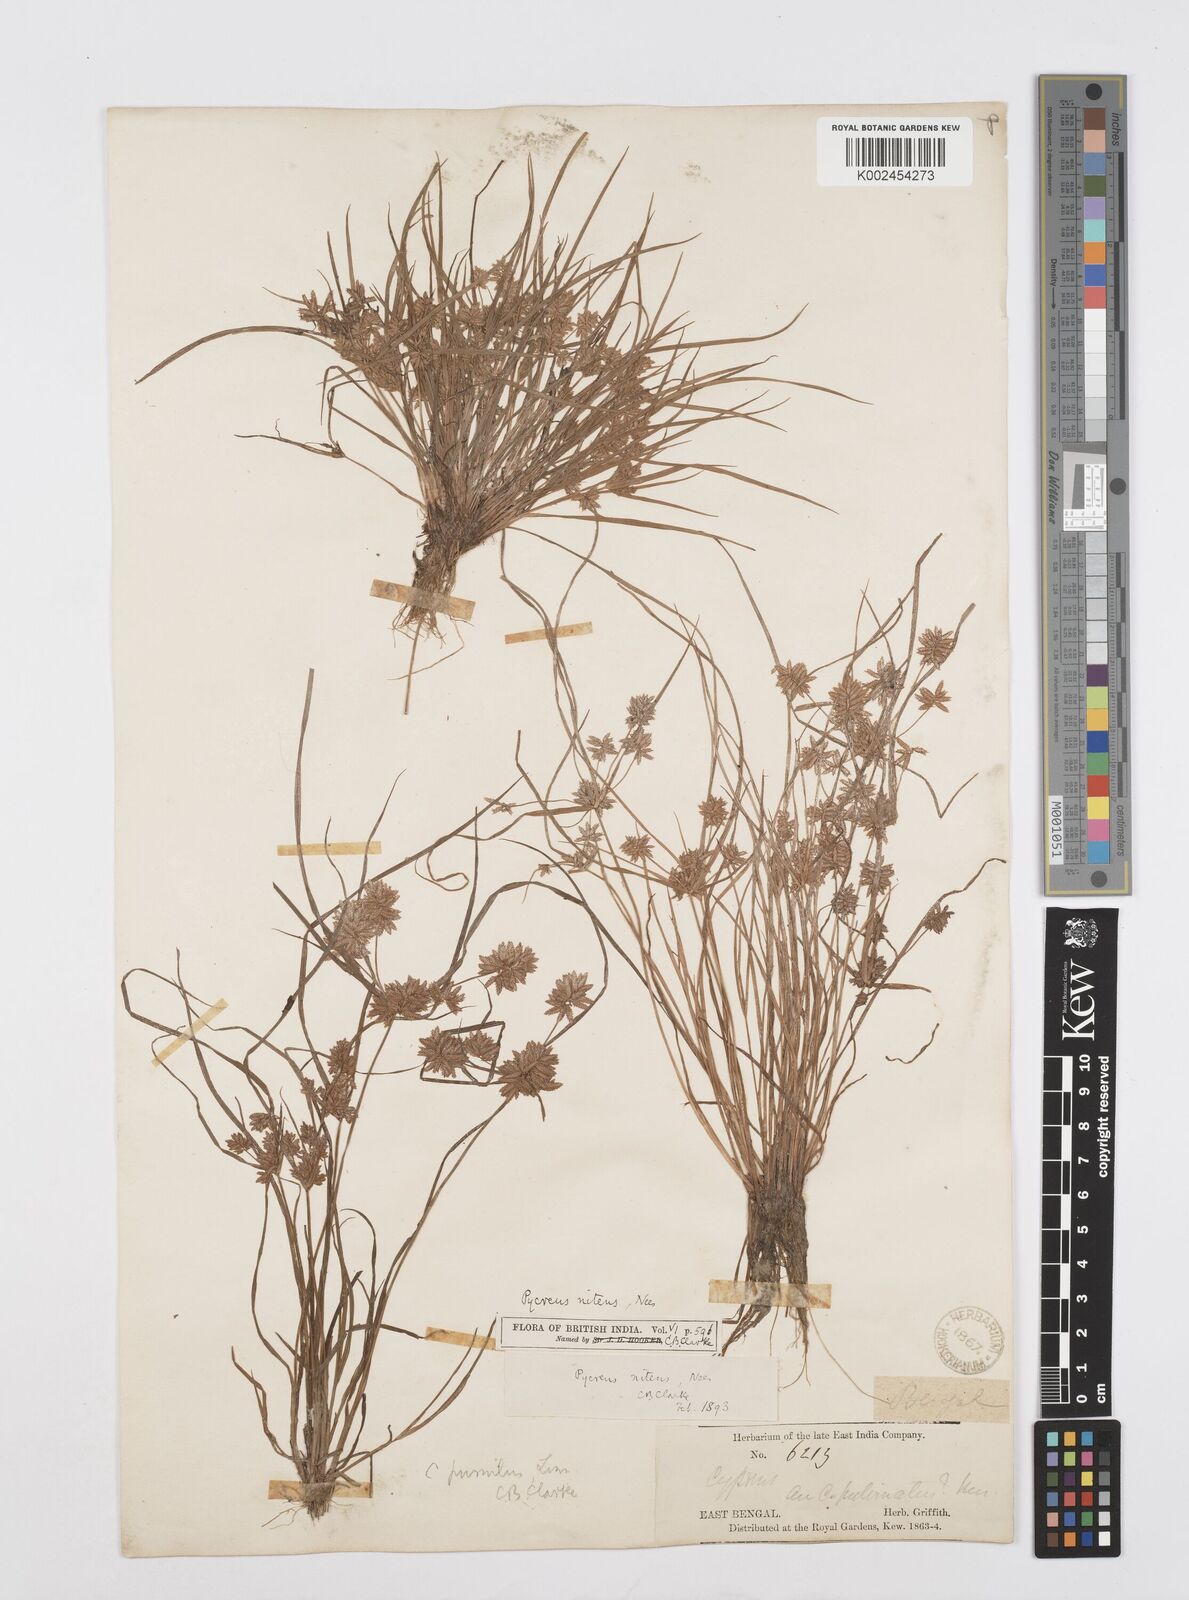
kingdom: Plantae
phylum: Tracheophyta
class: Liliopsida
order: Poales
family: Cyperaceae
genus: Cyperus
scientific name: Cyperus pumilus
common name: Low flatsedge
